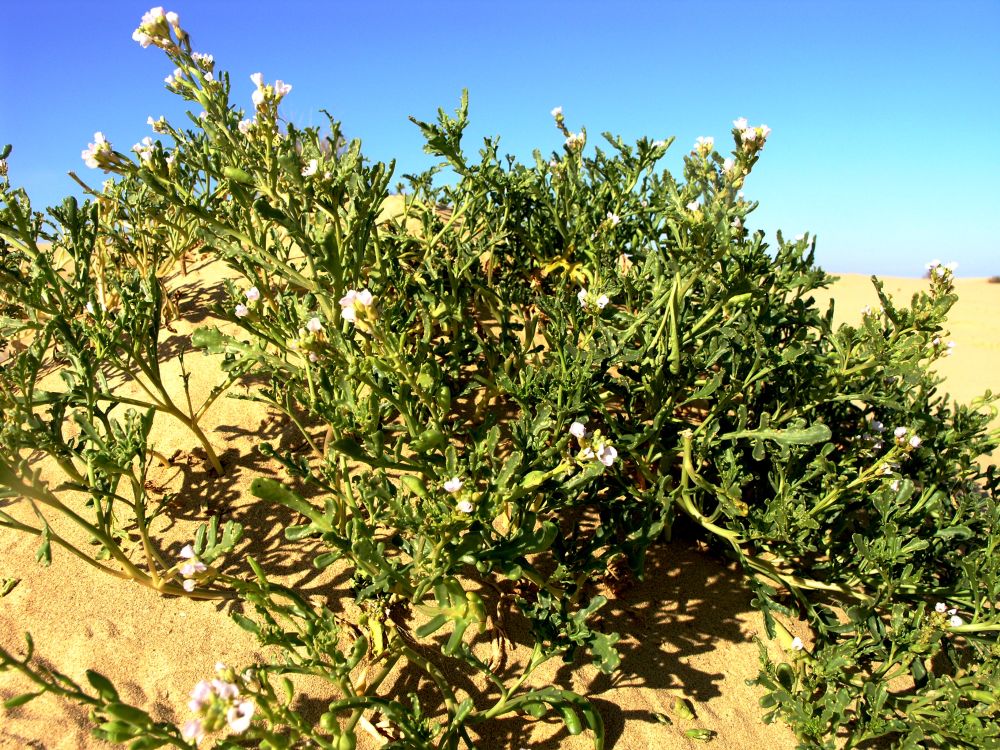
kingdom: Plantae
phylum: Tracheophyta
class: Magnoliopsida
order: Brassicales
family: Brassicaceae
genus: Cakile
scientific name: Cakile maritima
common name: Sea rocket
